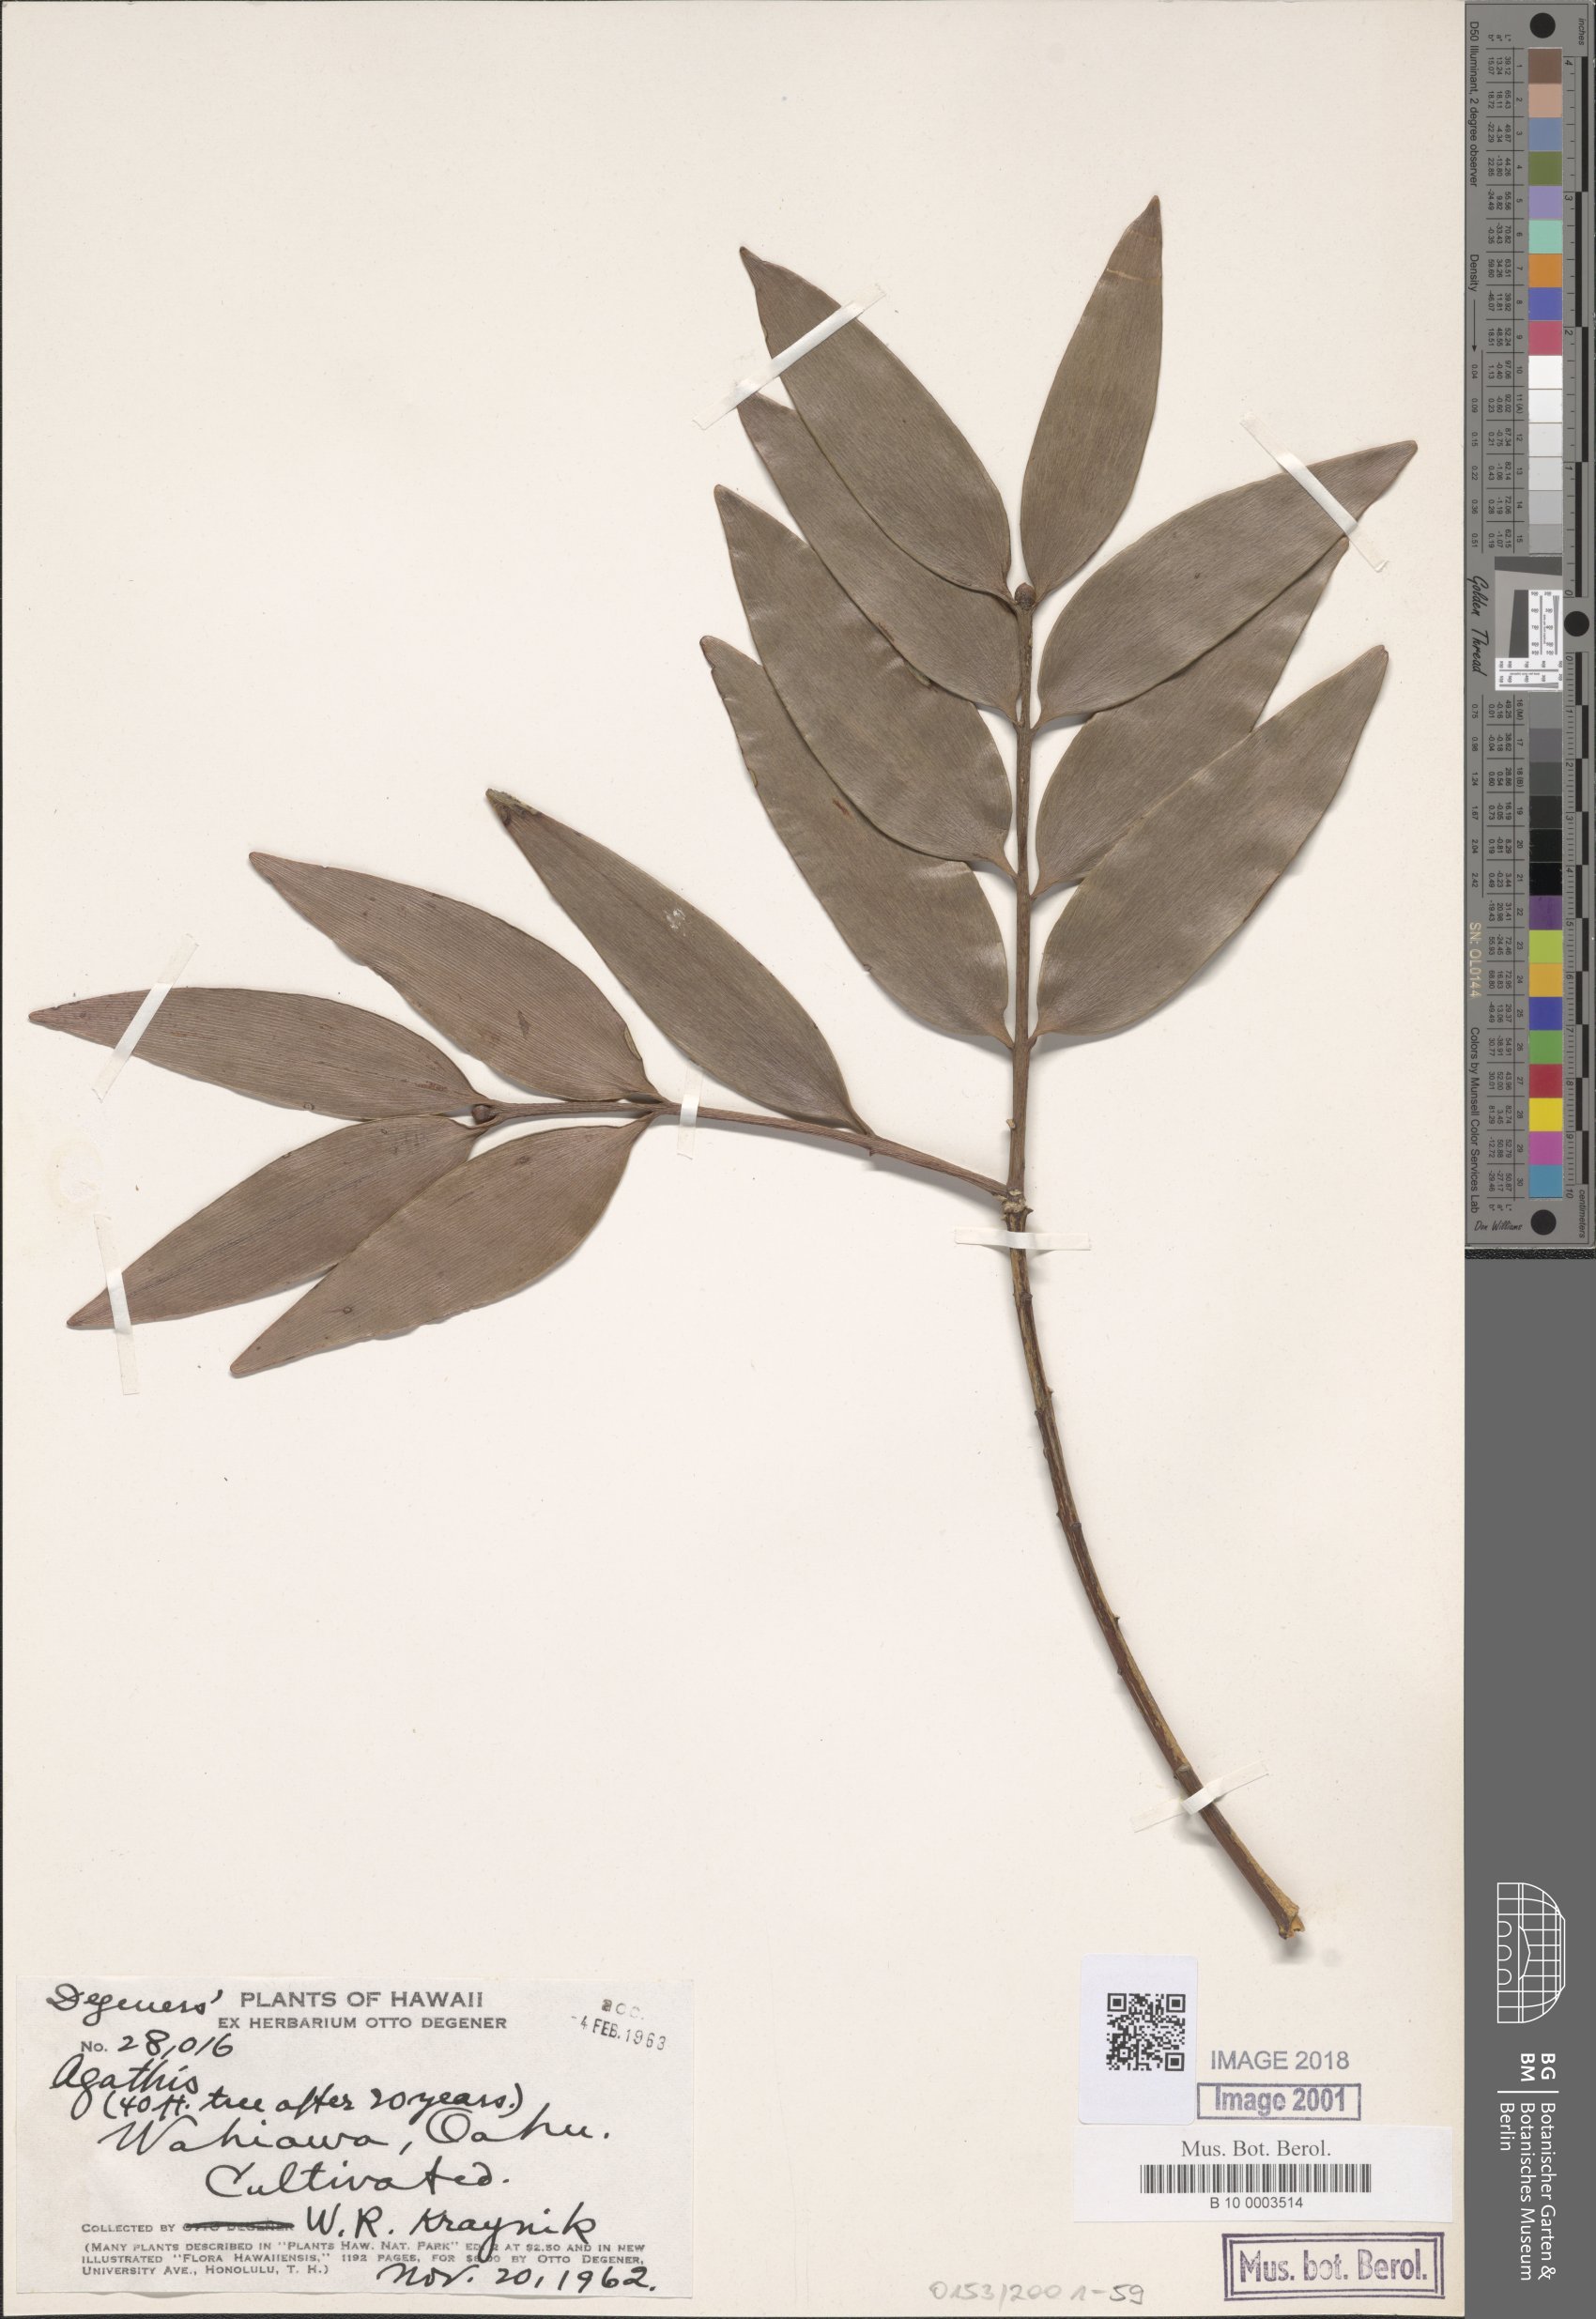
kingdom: Plantae
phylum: Tracheophyta
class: Pinopsida
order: Pinales
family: Araucariaceae
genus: Agathis
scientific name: Agathis
